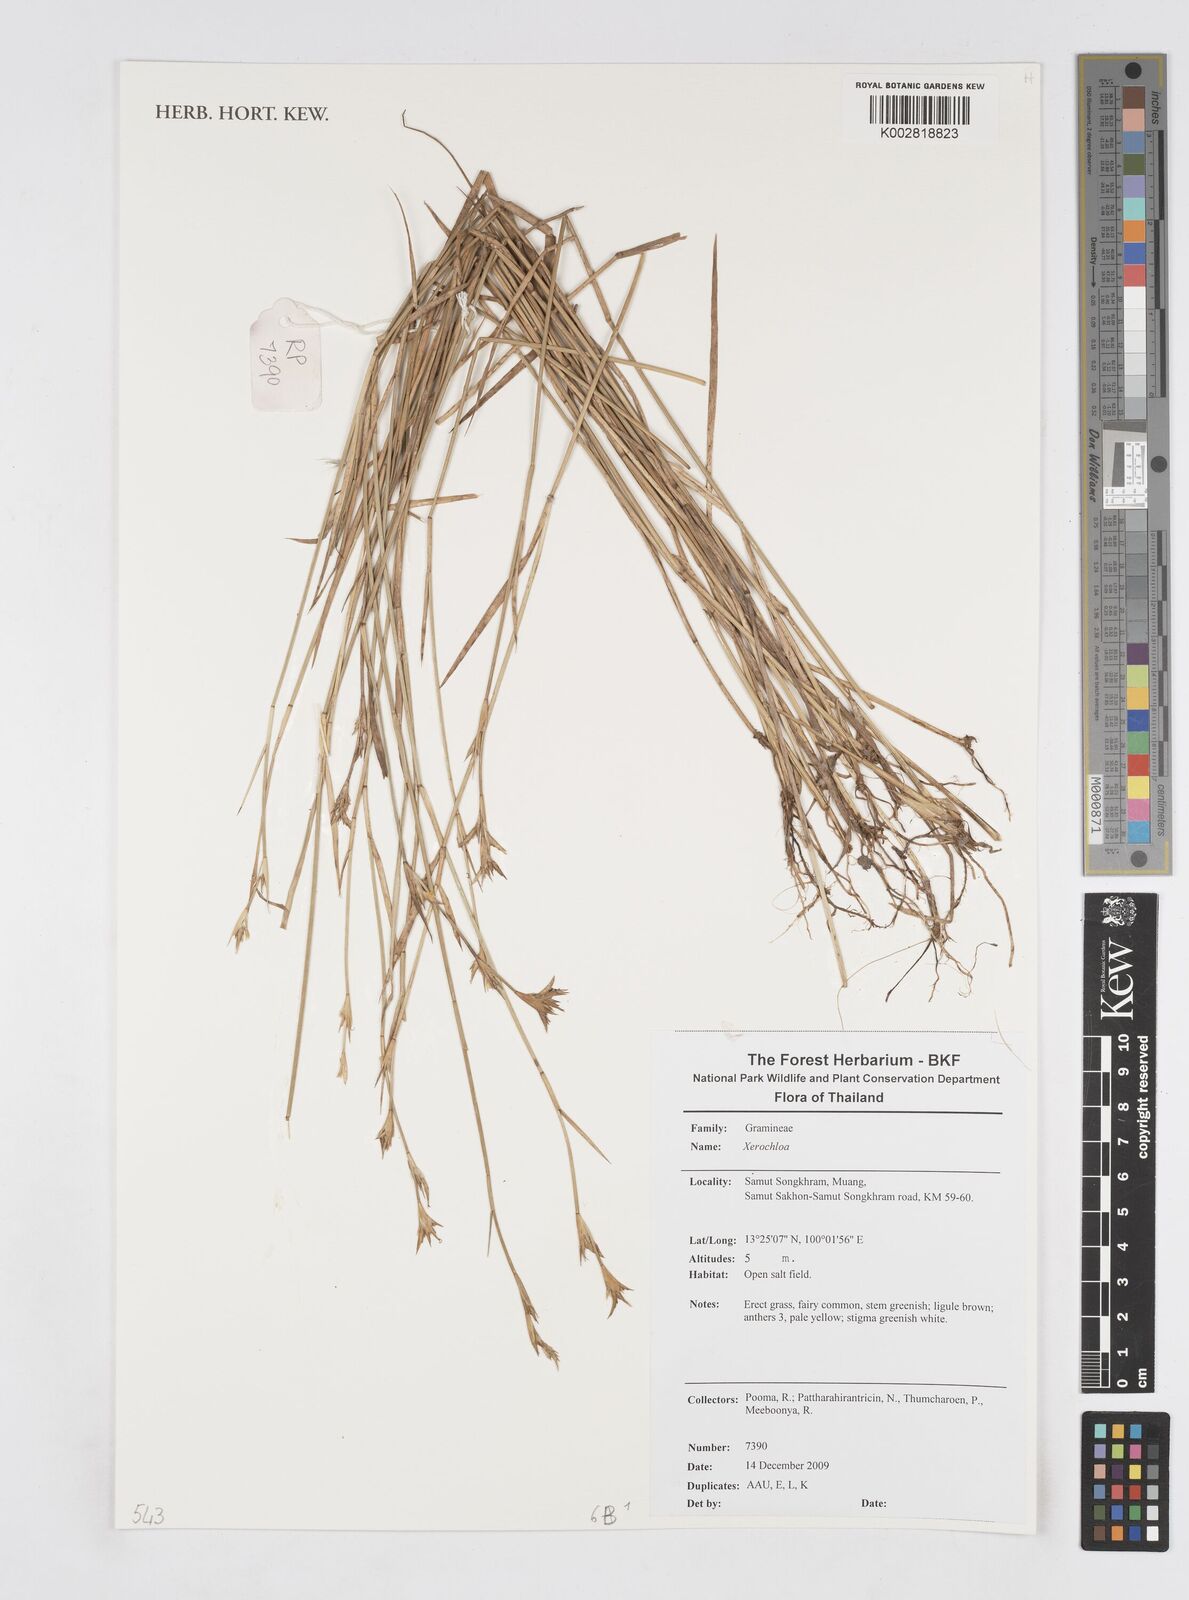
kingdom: Plantae
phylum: Tracheophyta
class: Liliopsida
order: Poales
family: Poaceae
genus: Xerochloa
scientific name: Xerochloa
